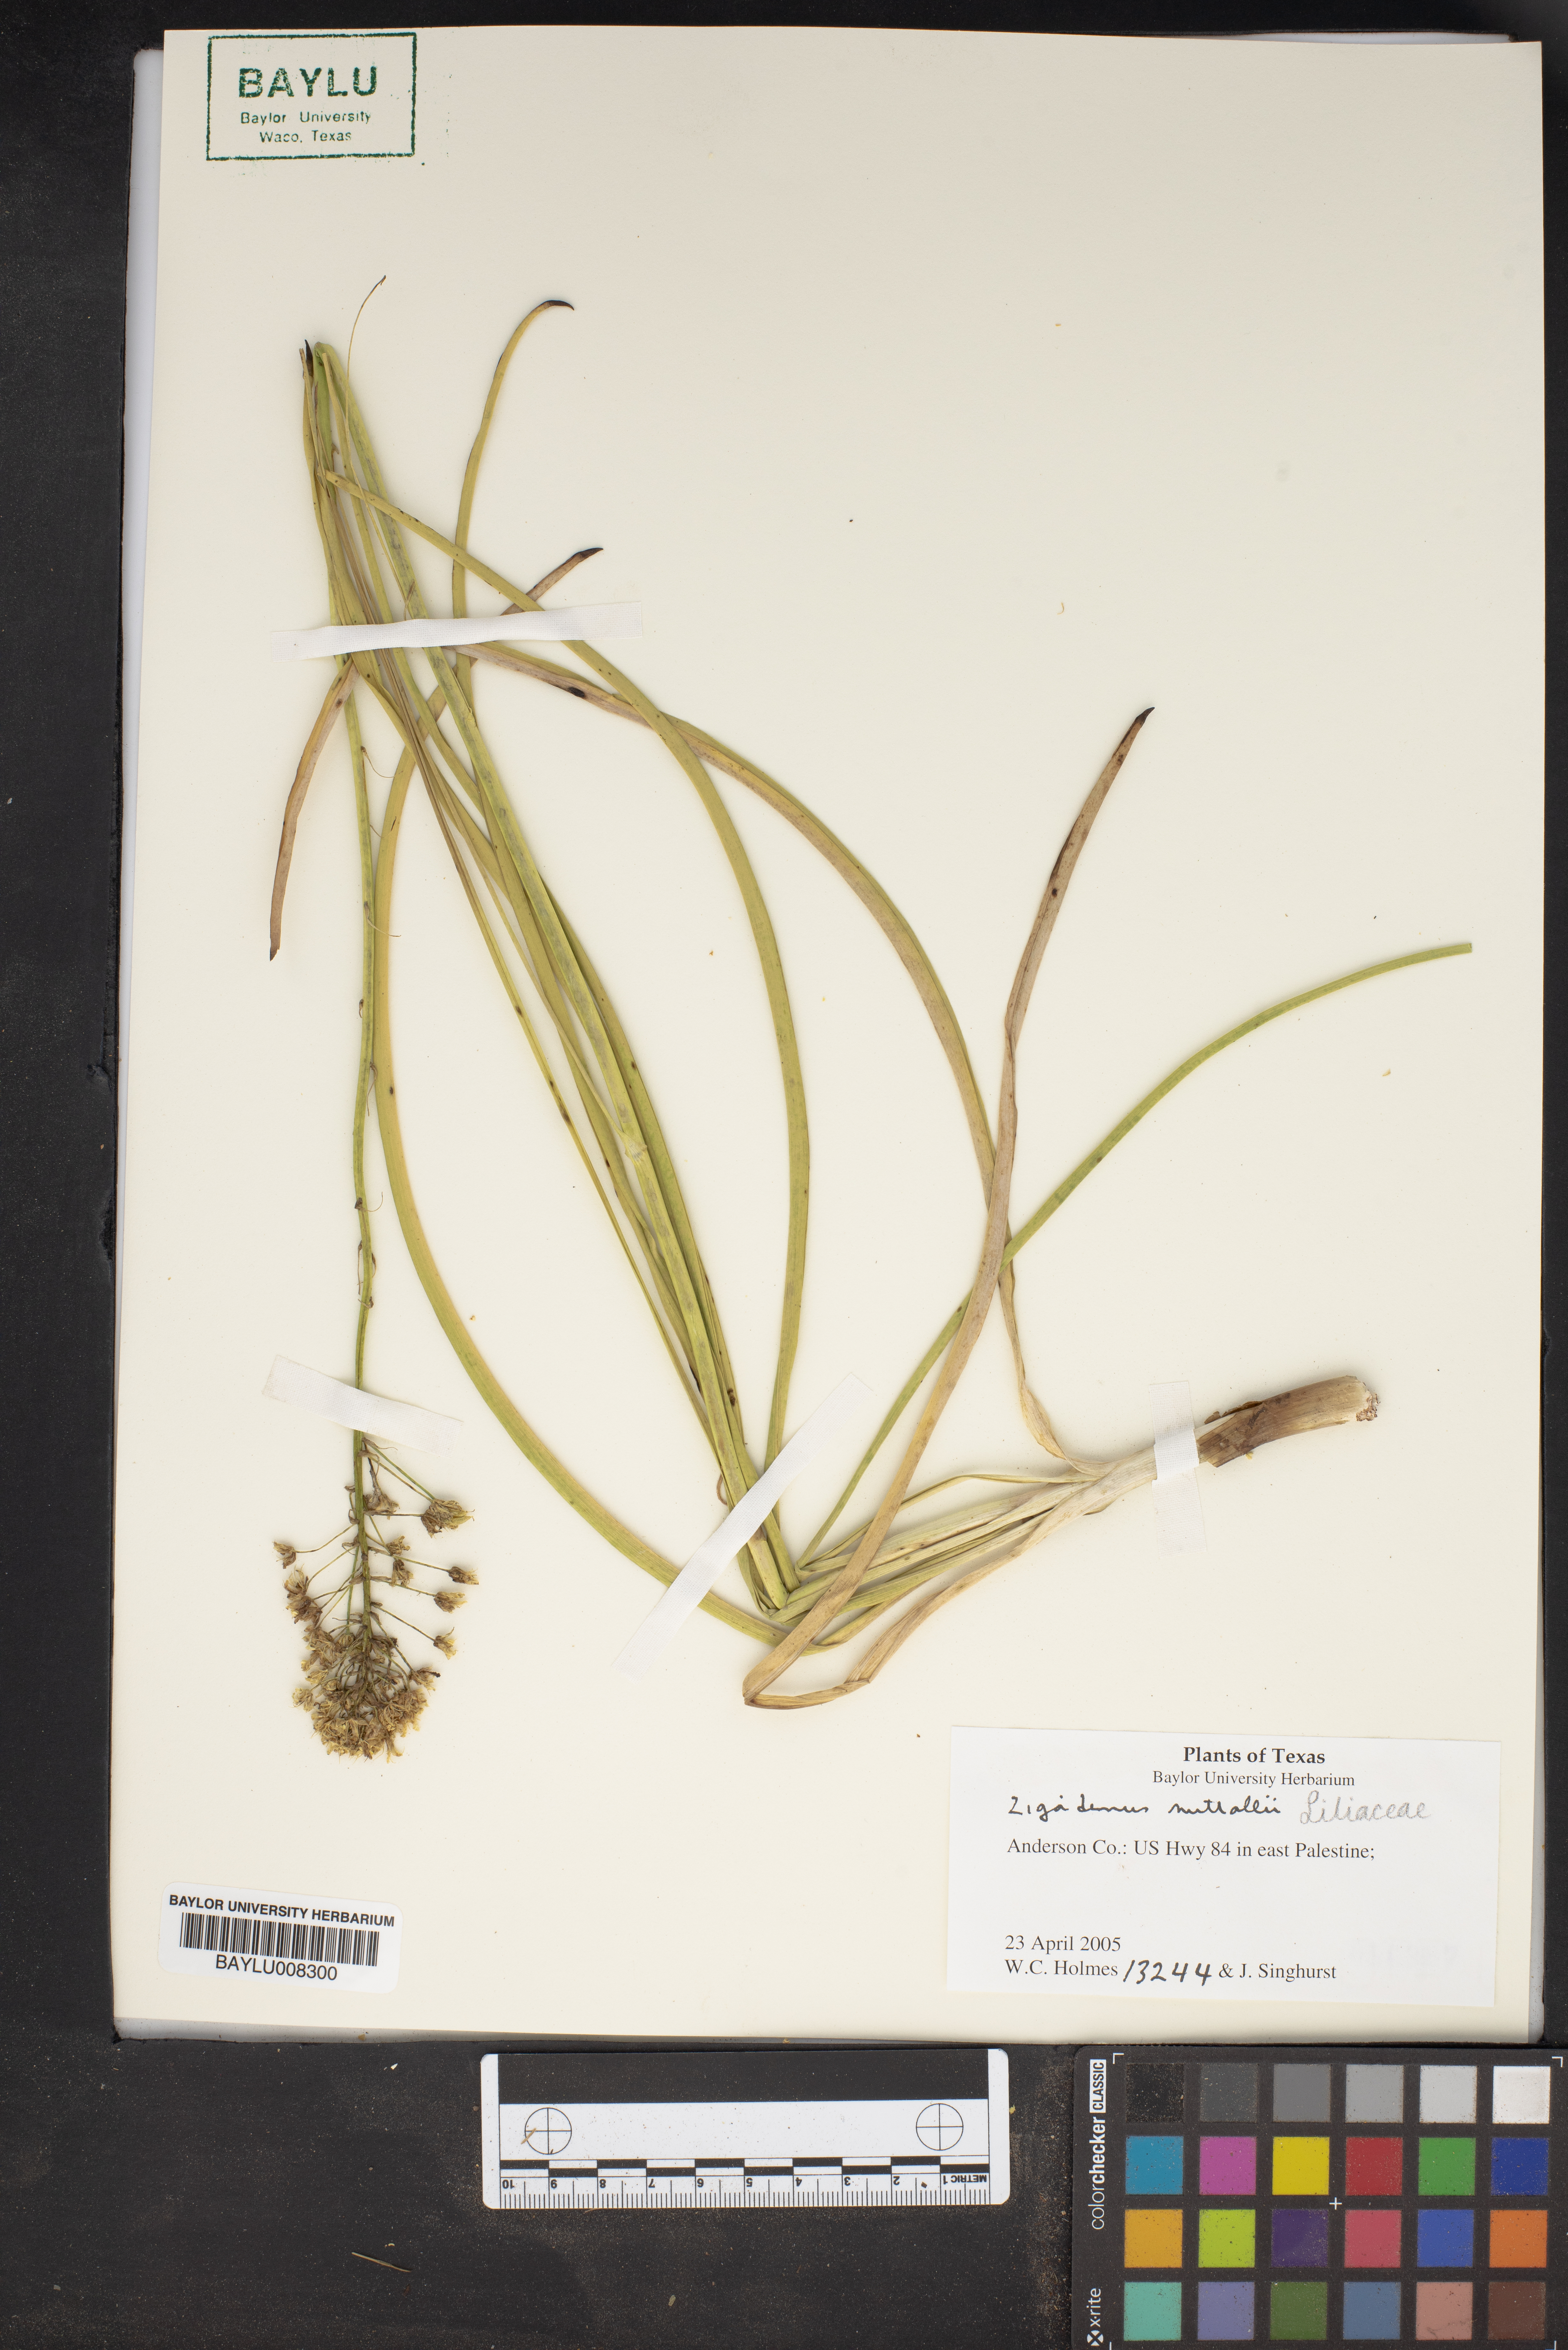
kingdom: Plantae
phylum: Tracheophyta
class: Liliopsida
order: Liliales
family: Melanthiaceae
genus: Toxicoscordion
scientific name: Toxicoscordion nuttallii
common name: Poison sego
